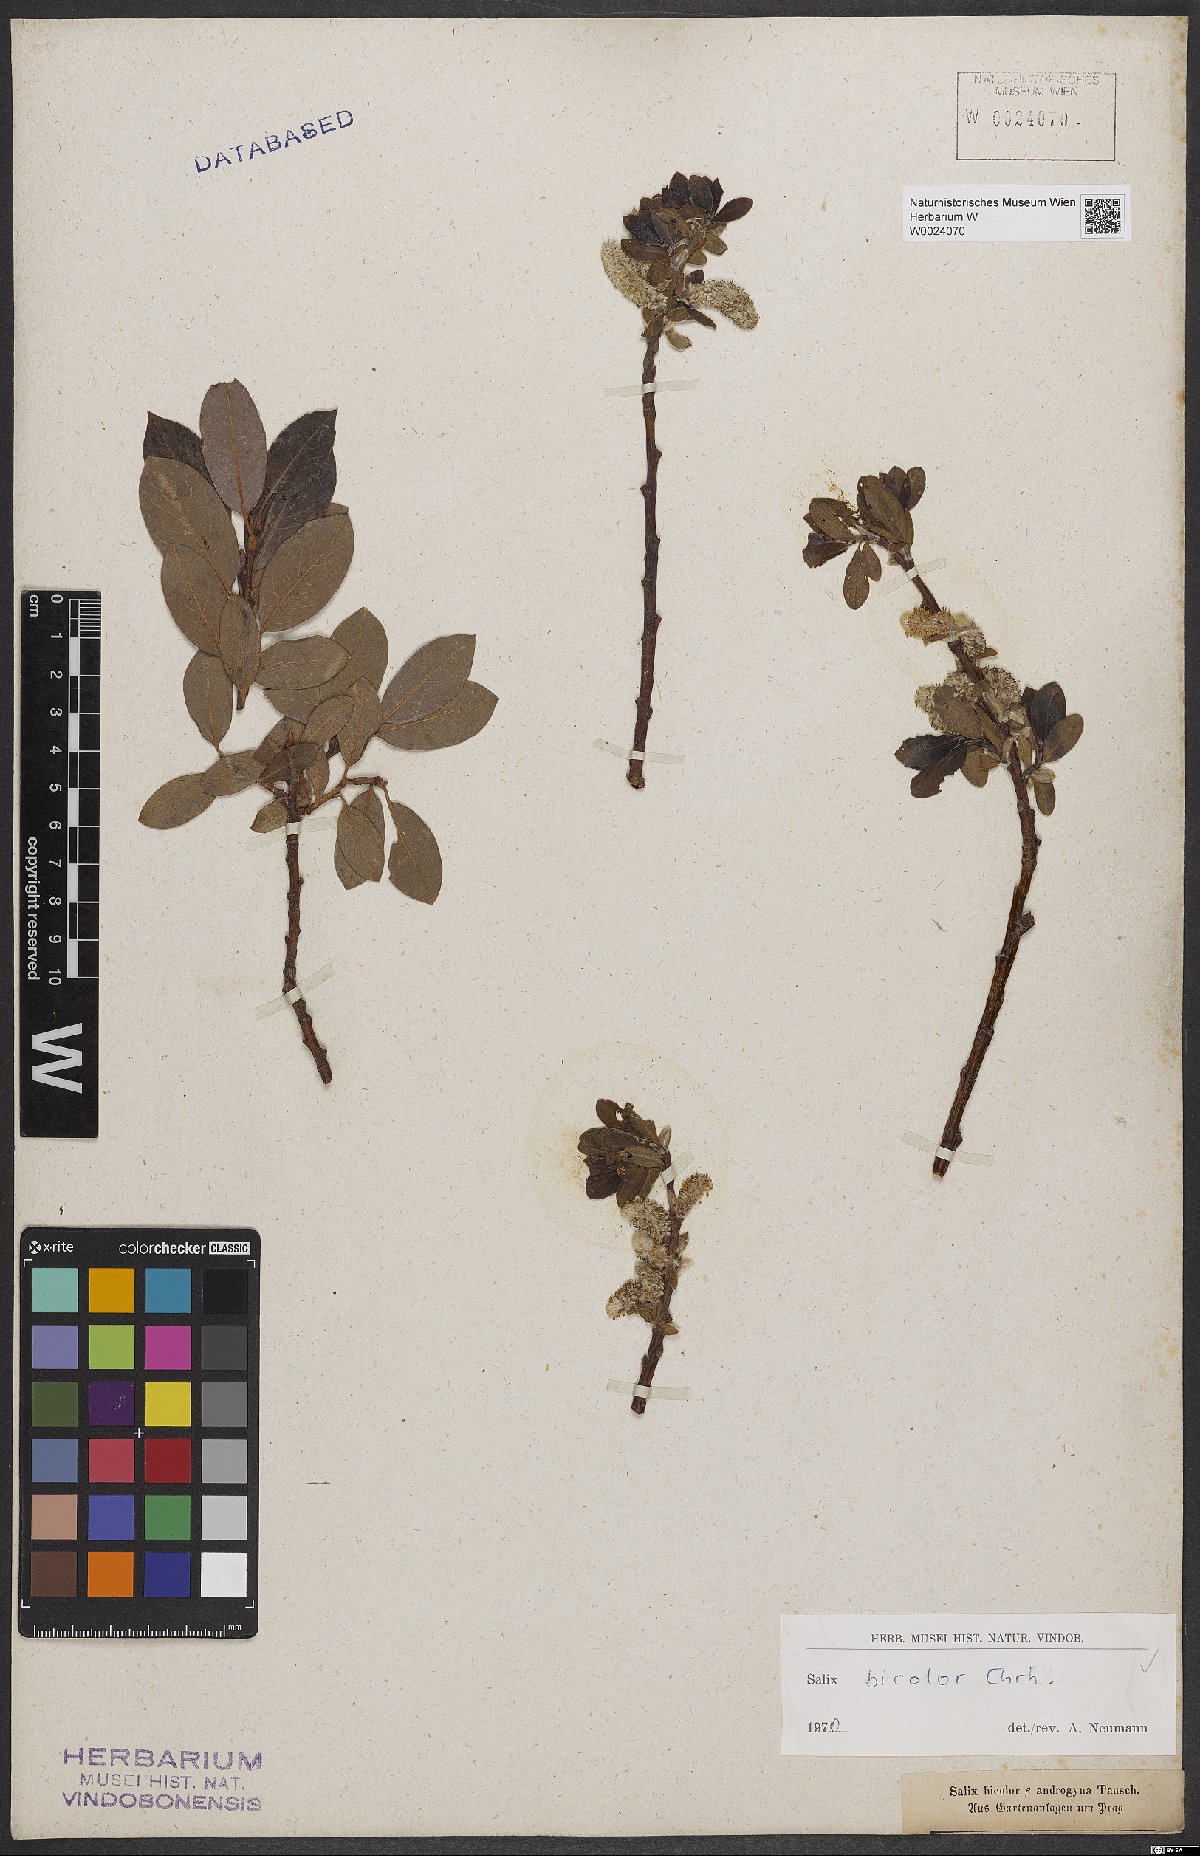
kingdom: Plantae
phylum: Tracheophyta
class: Magnoliopsida
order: Malpighiales
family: Salicaceae
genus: Salix
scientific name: Salix bicolor
